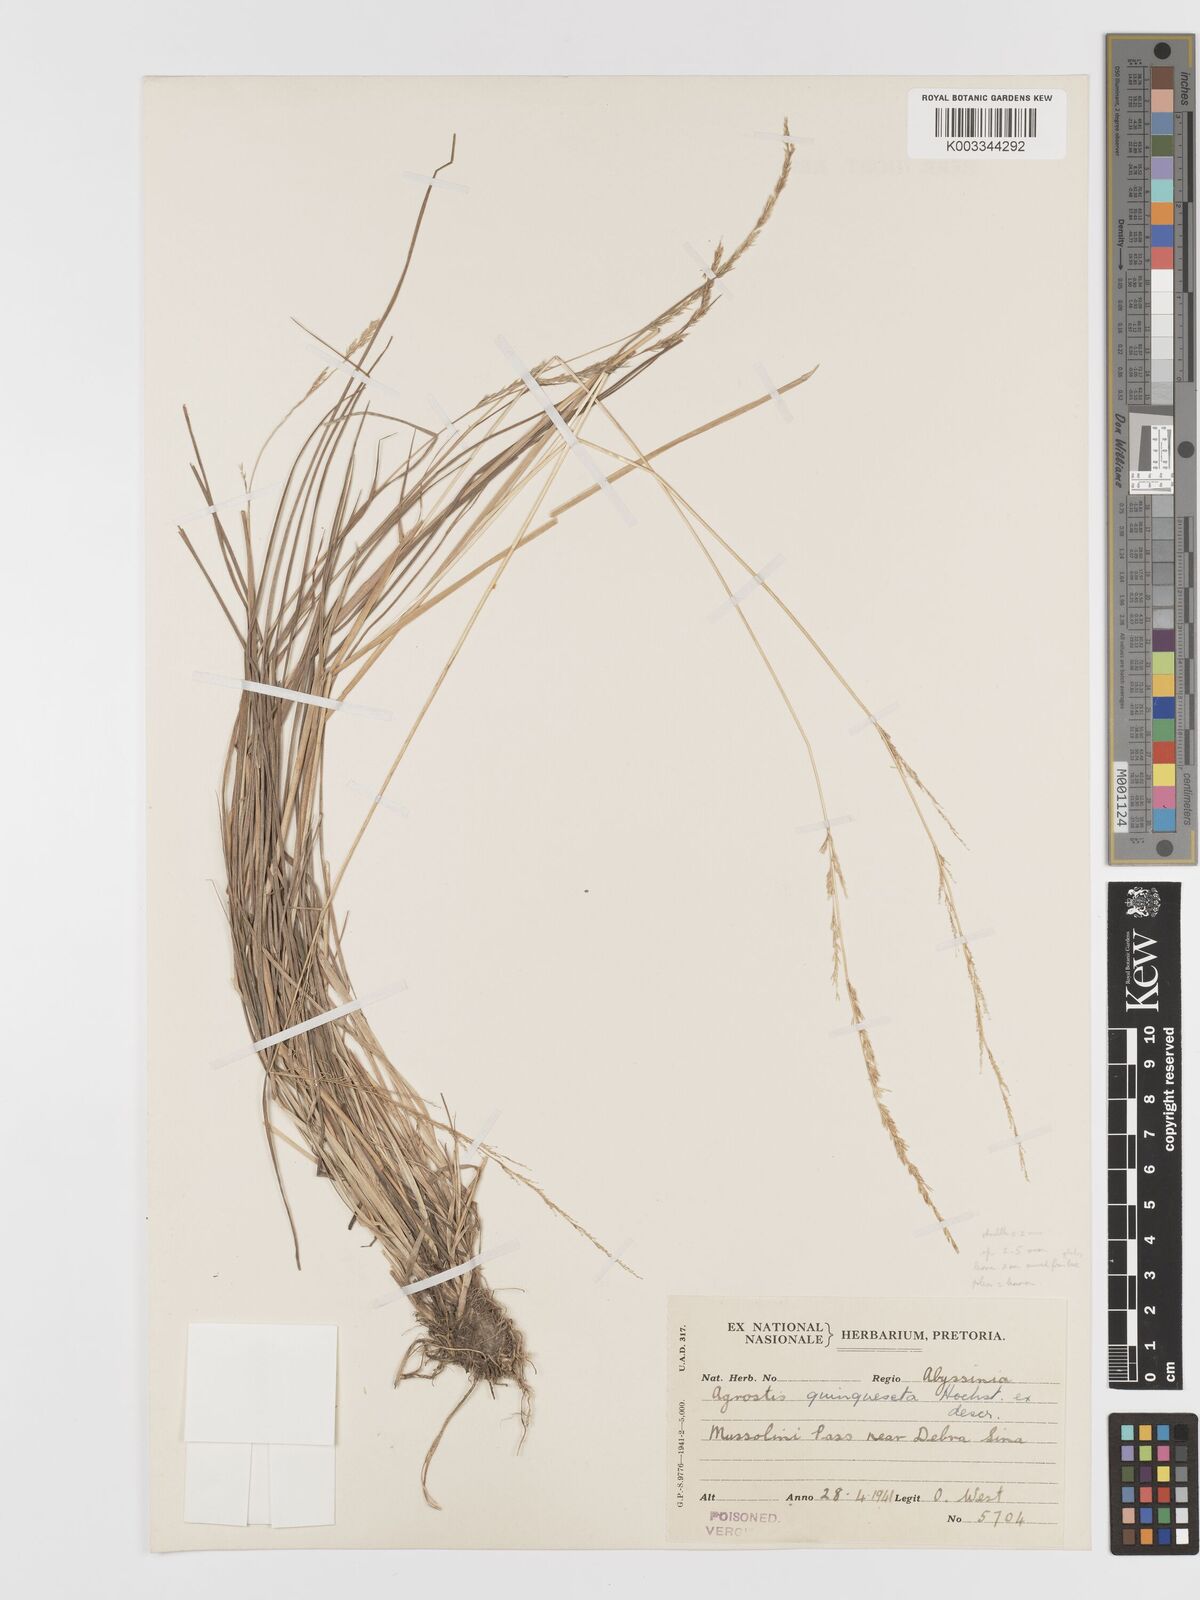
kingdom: Plantae
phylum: Tracheophyta
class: Liliopsida
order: Poales
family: Poaceae
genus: Agrostis
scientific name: Agrostis quinqueseta
